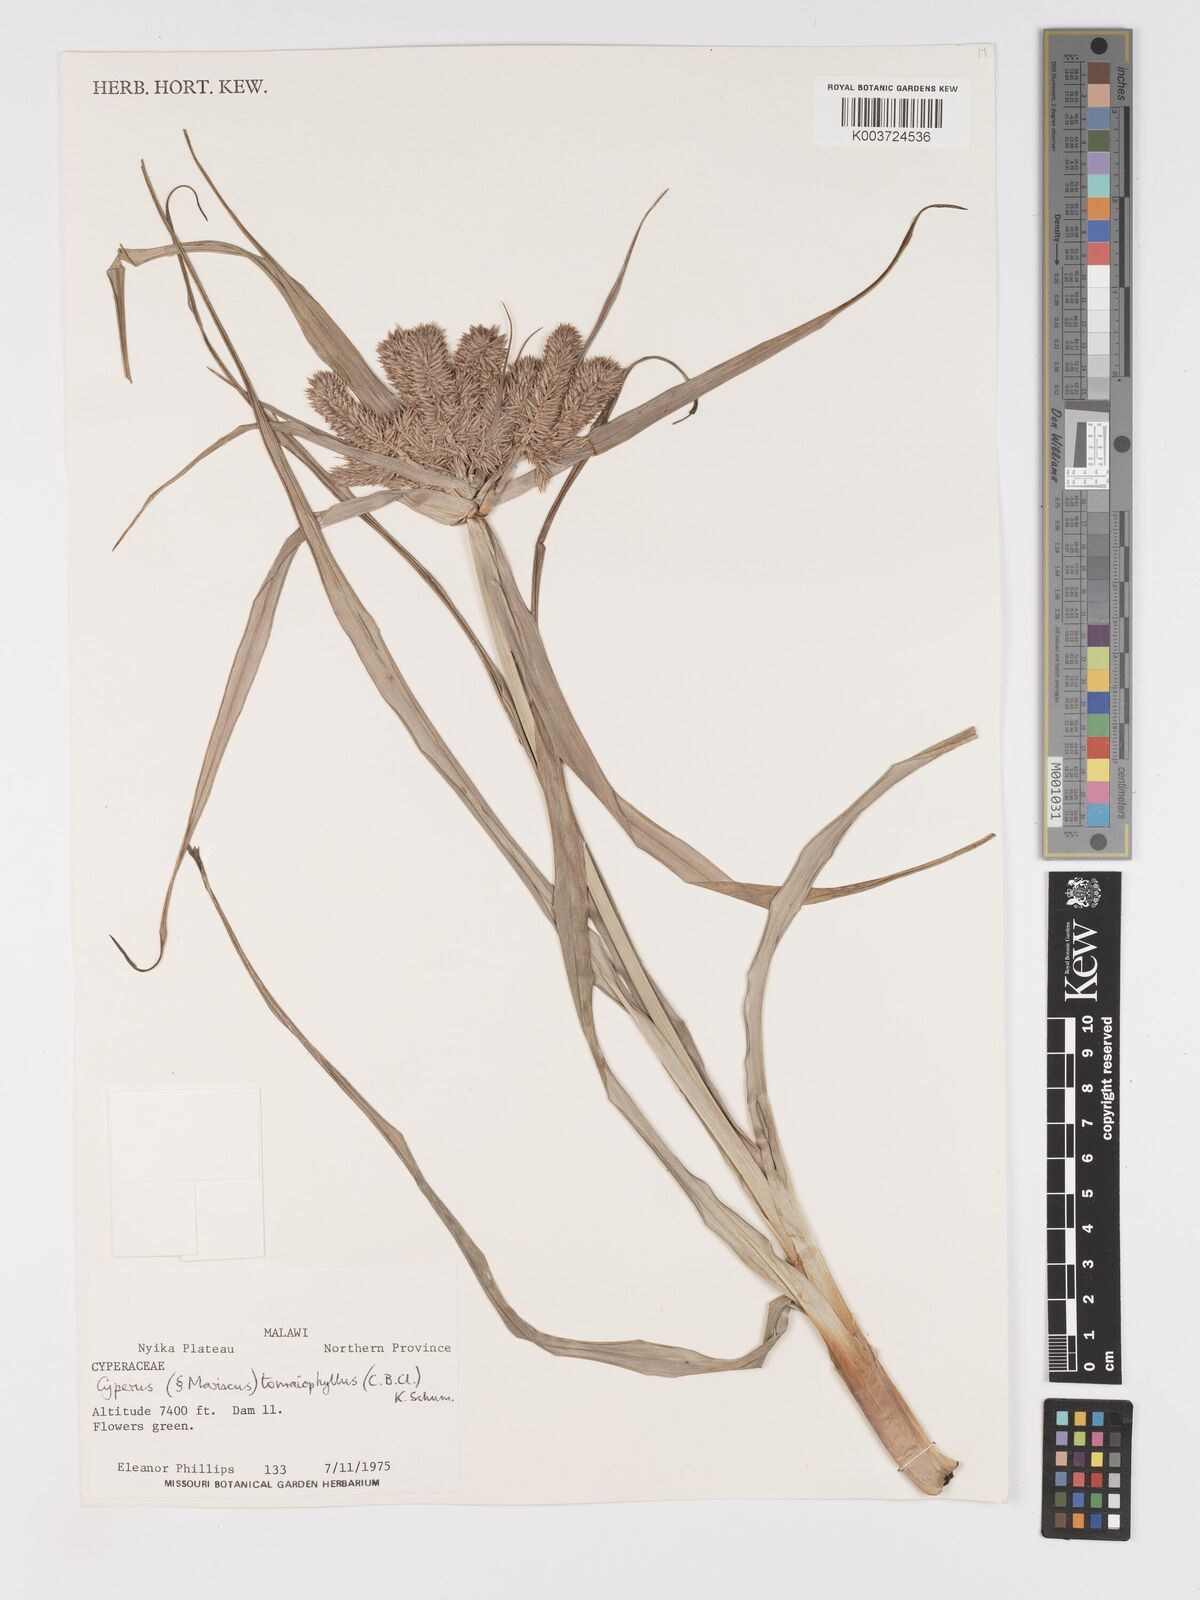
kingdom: Plantae
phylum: Tracheophyta
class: Liliopsida
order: Poales
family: Cyperaceae
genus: Cyperus
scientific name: Cyperus tomaiophyllus
